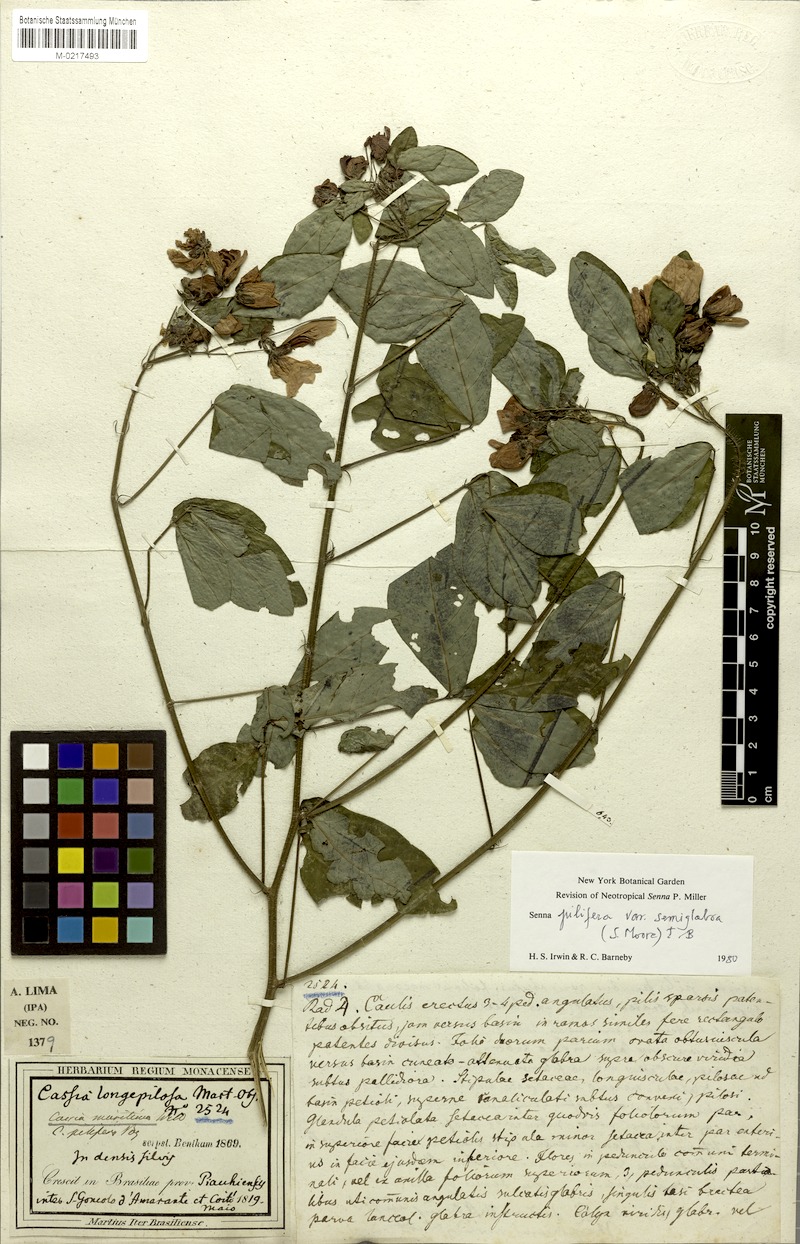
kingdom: Plantae
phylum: Tracheophyta
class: Magnoliopsida
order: Fabales
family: Fabaceae
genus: Senna
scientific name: Senna pilifera
